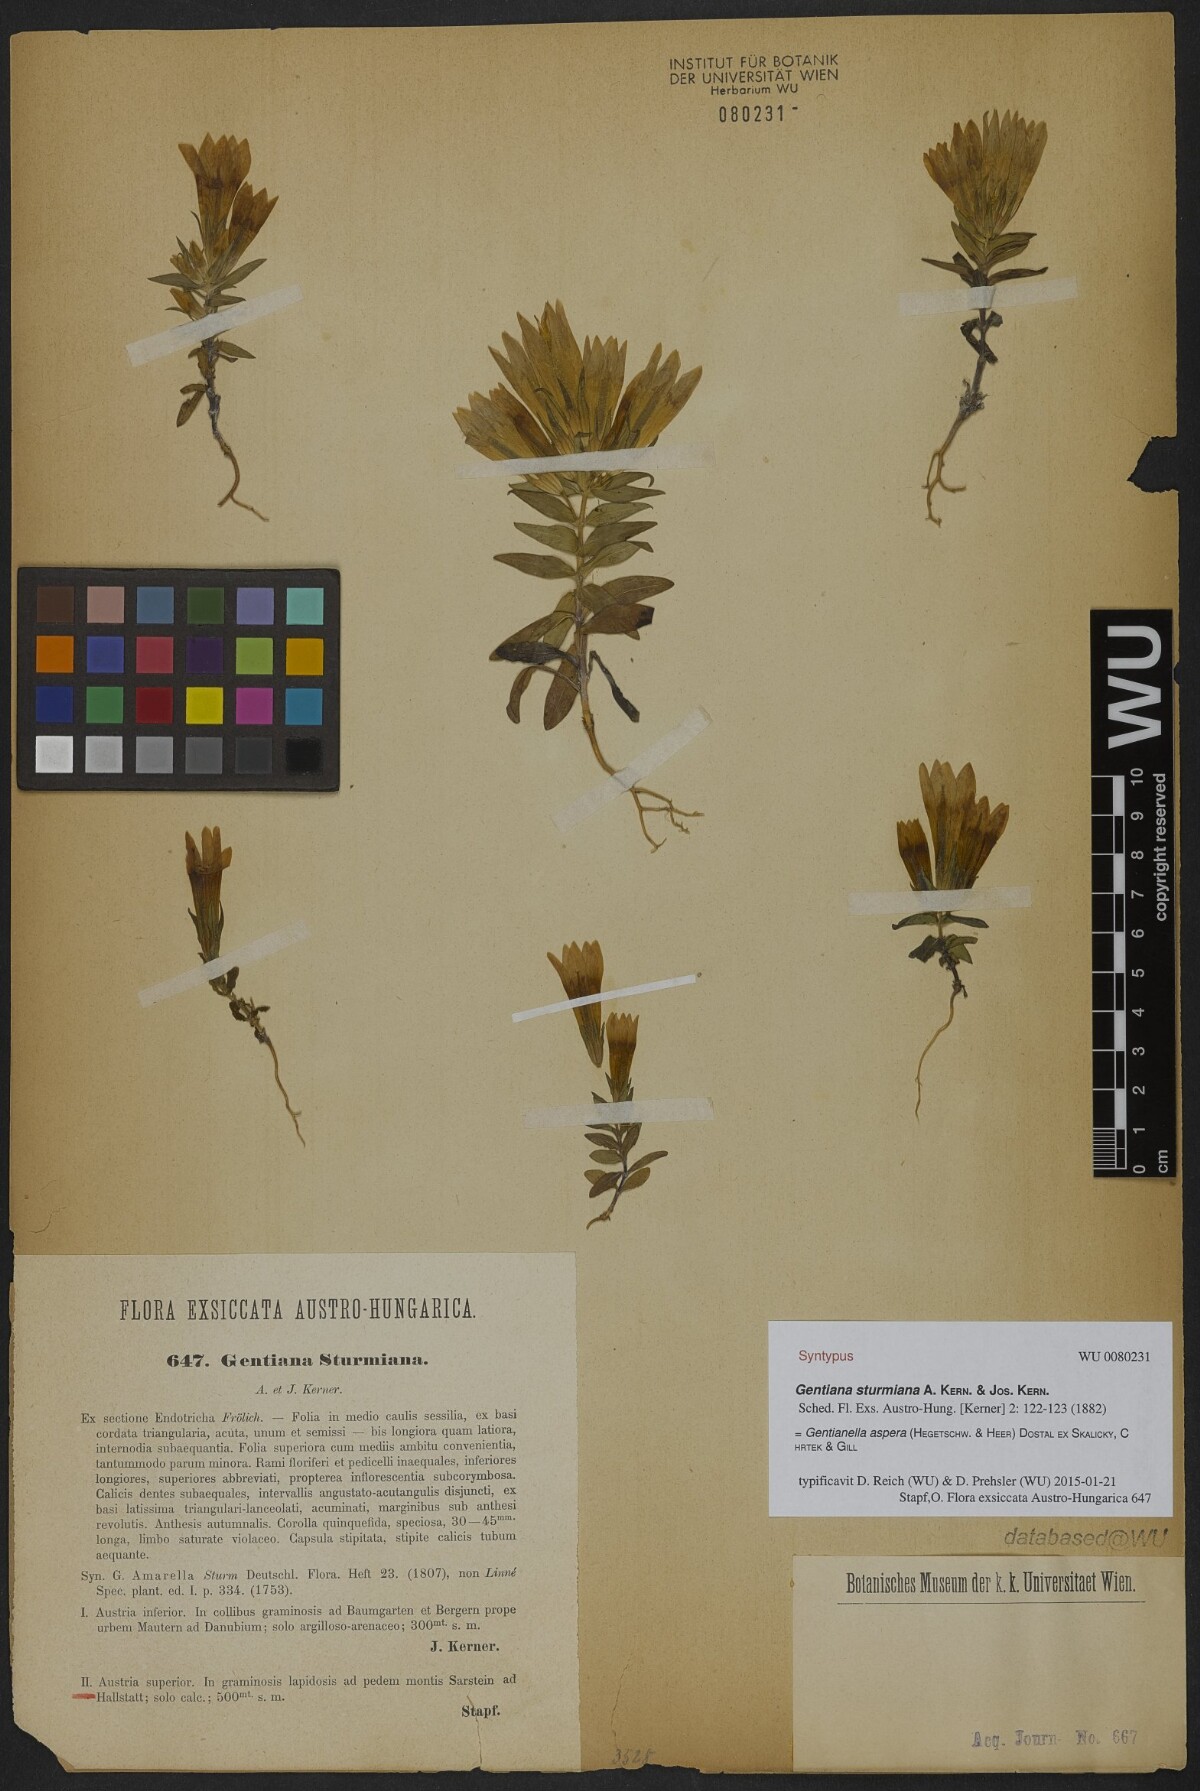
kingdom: Plantae
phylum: Tracheophyta
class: Magnoliopsida
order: Gentianales
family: Gentianaceae
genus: Gentianella
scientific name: Gentianella obtusifolia
